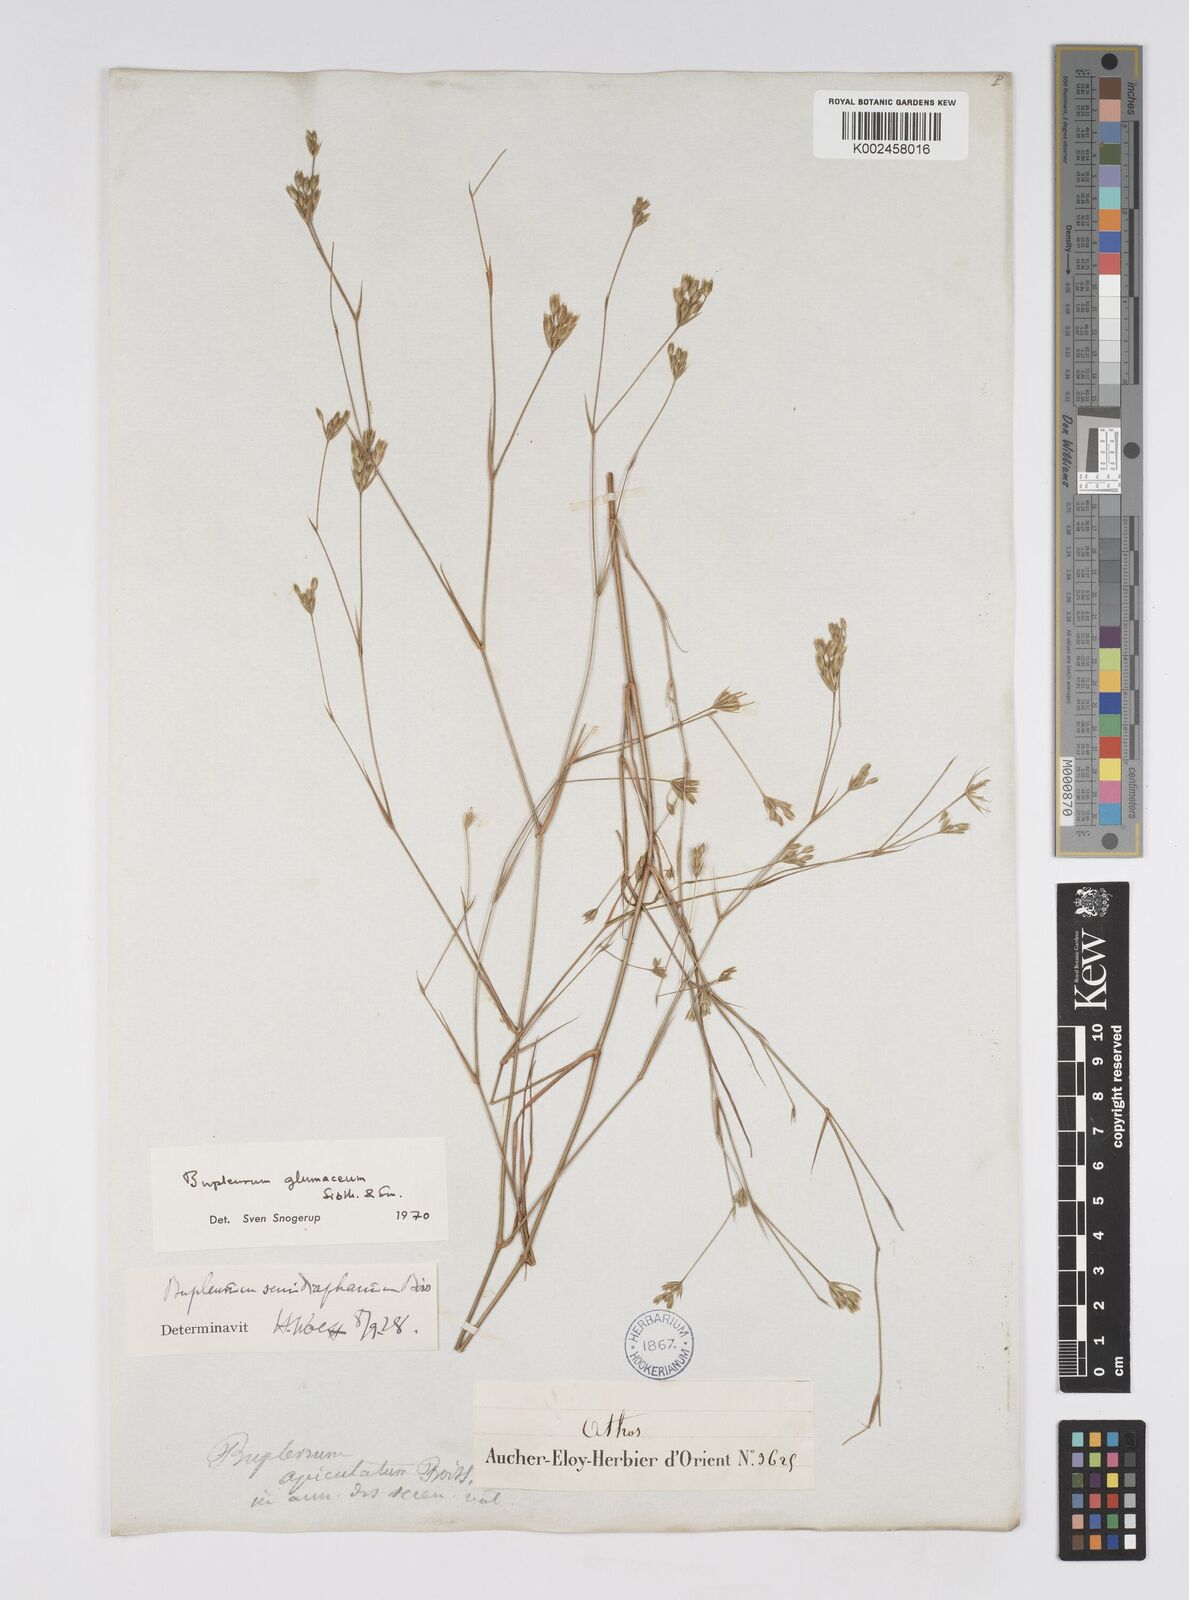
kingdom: Plantae
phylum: Tracheophyta
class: Magnoliopsida
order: Apiales
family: Apiaceae
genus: Bupleurum
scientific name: Bupleurum glumaceum
